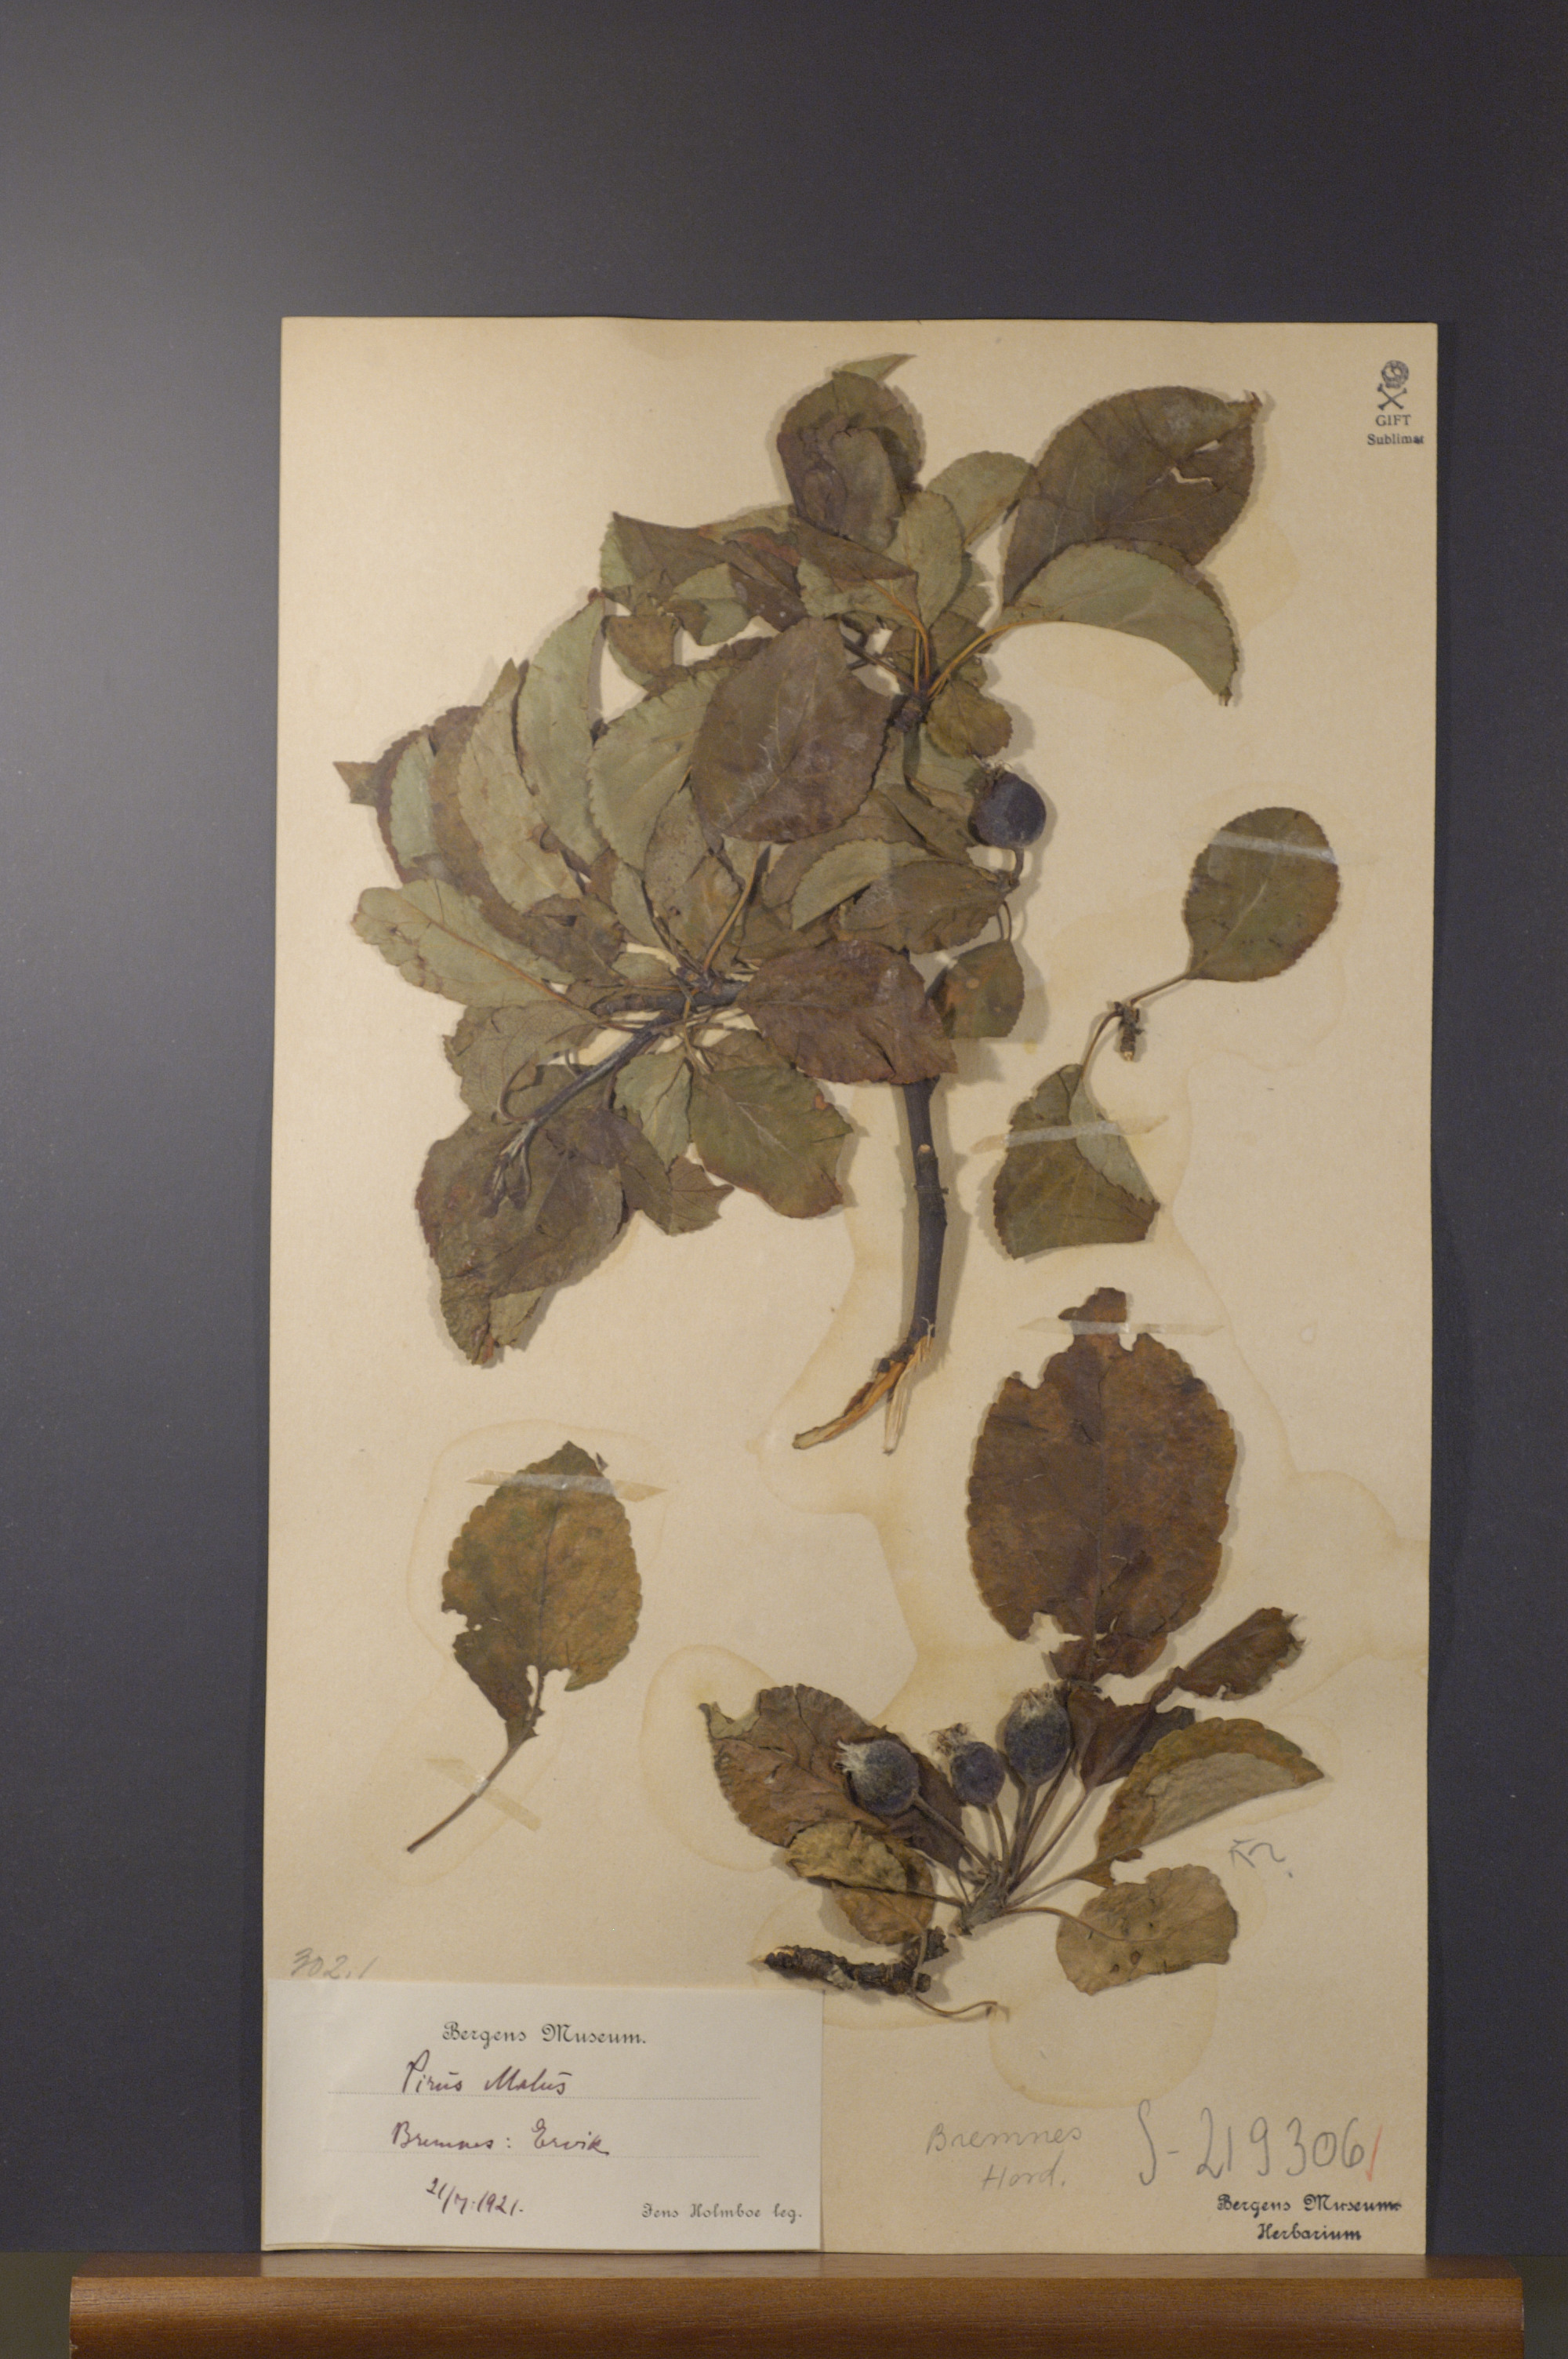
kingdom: Plantae
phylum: Tracheophyta
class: Magnoliopsida
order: Rosales
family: Rosaceae
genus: Malus
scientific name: Malus domestica
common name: Apple
